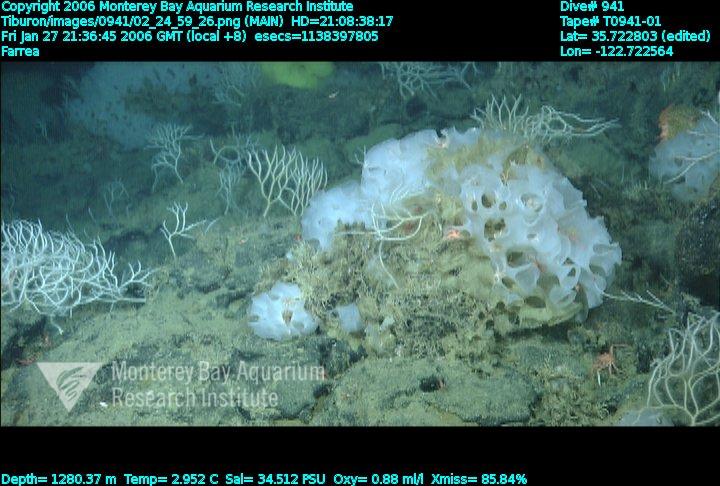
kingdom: Animalia
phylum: Porifera
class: Hexactinellida
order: Sceptrulophora
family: Farreidae
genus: Farrea
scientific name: Farrea
